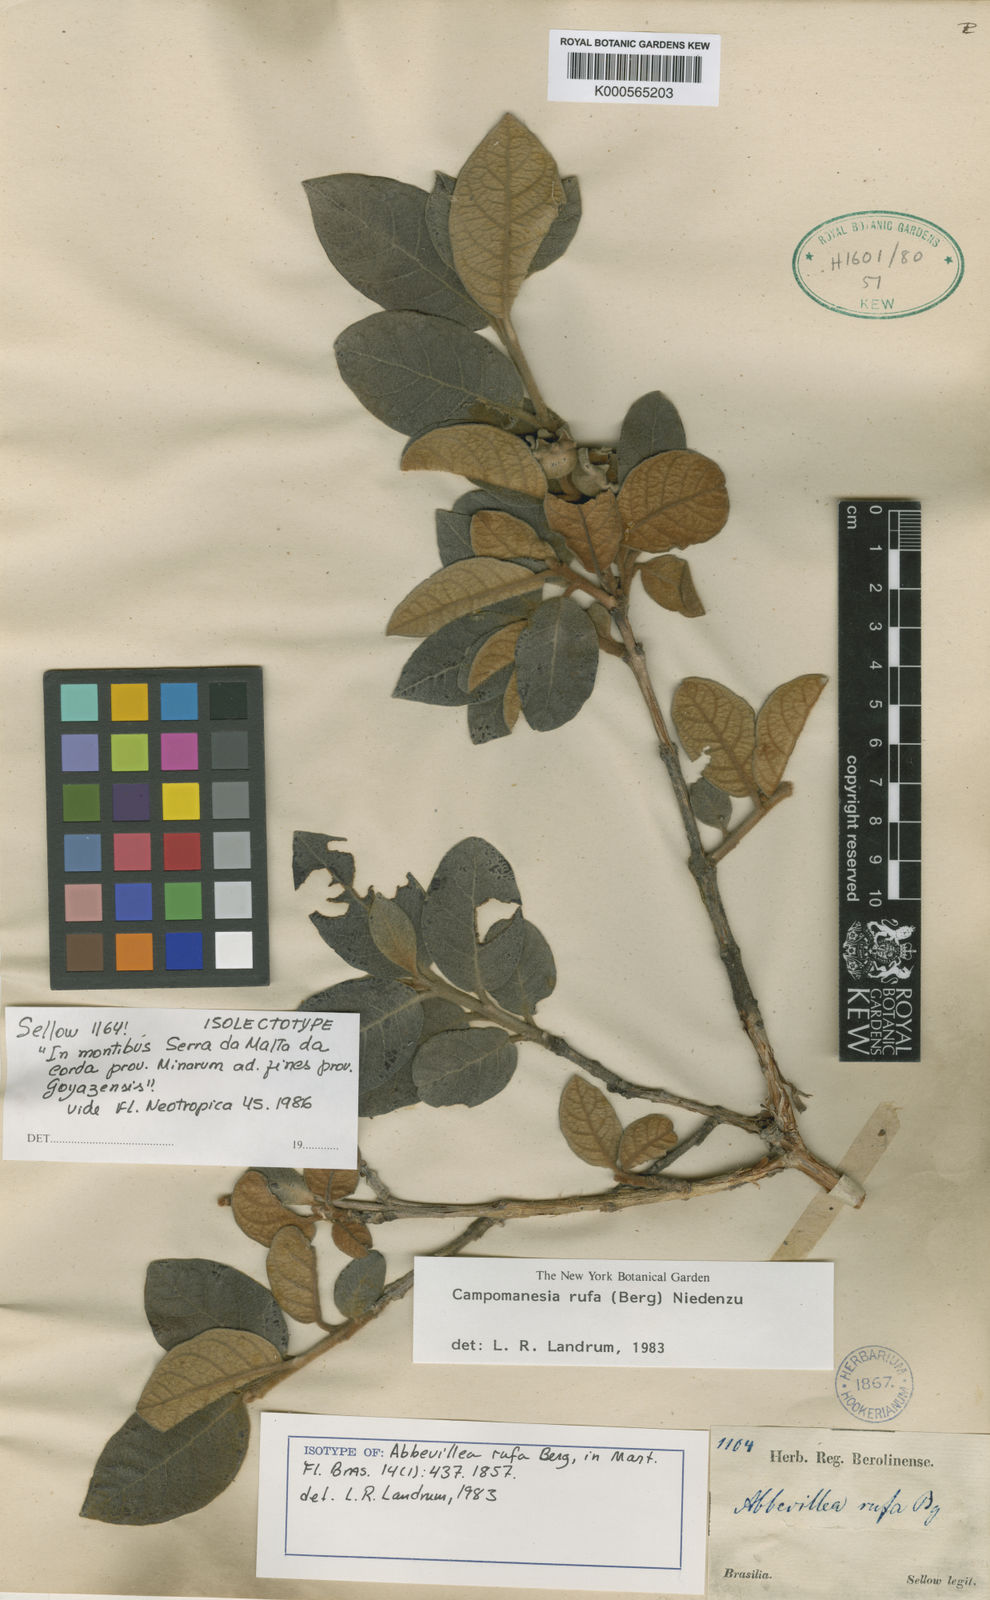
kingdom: Plantae
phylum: Tracheophyta
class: Magnoliopsida
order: Myrtales
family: Myrtaceae
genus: Campomanesia
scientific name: Campomanesia rufa
